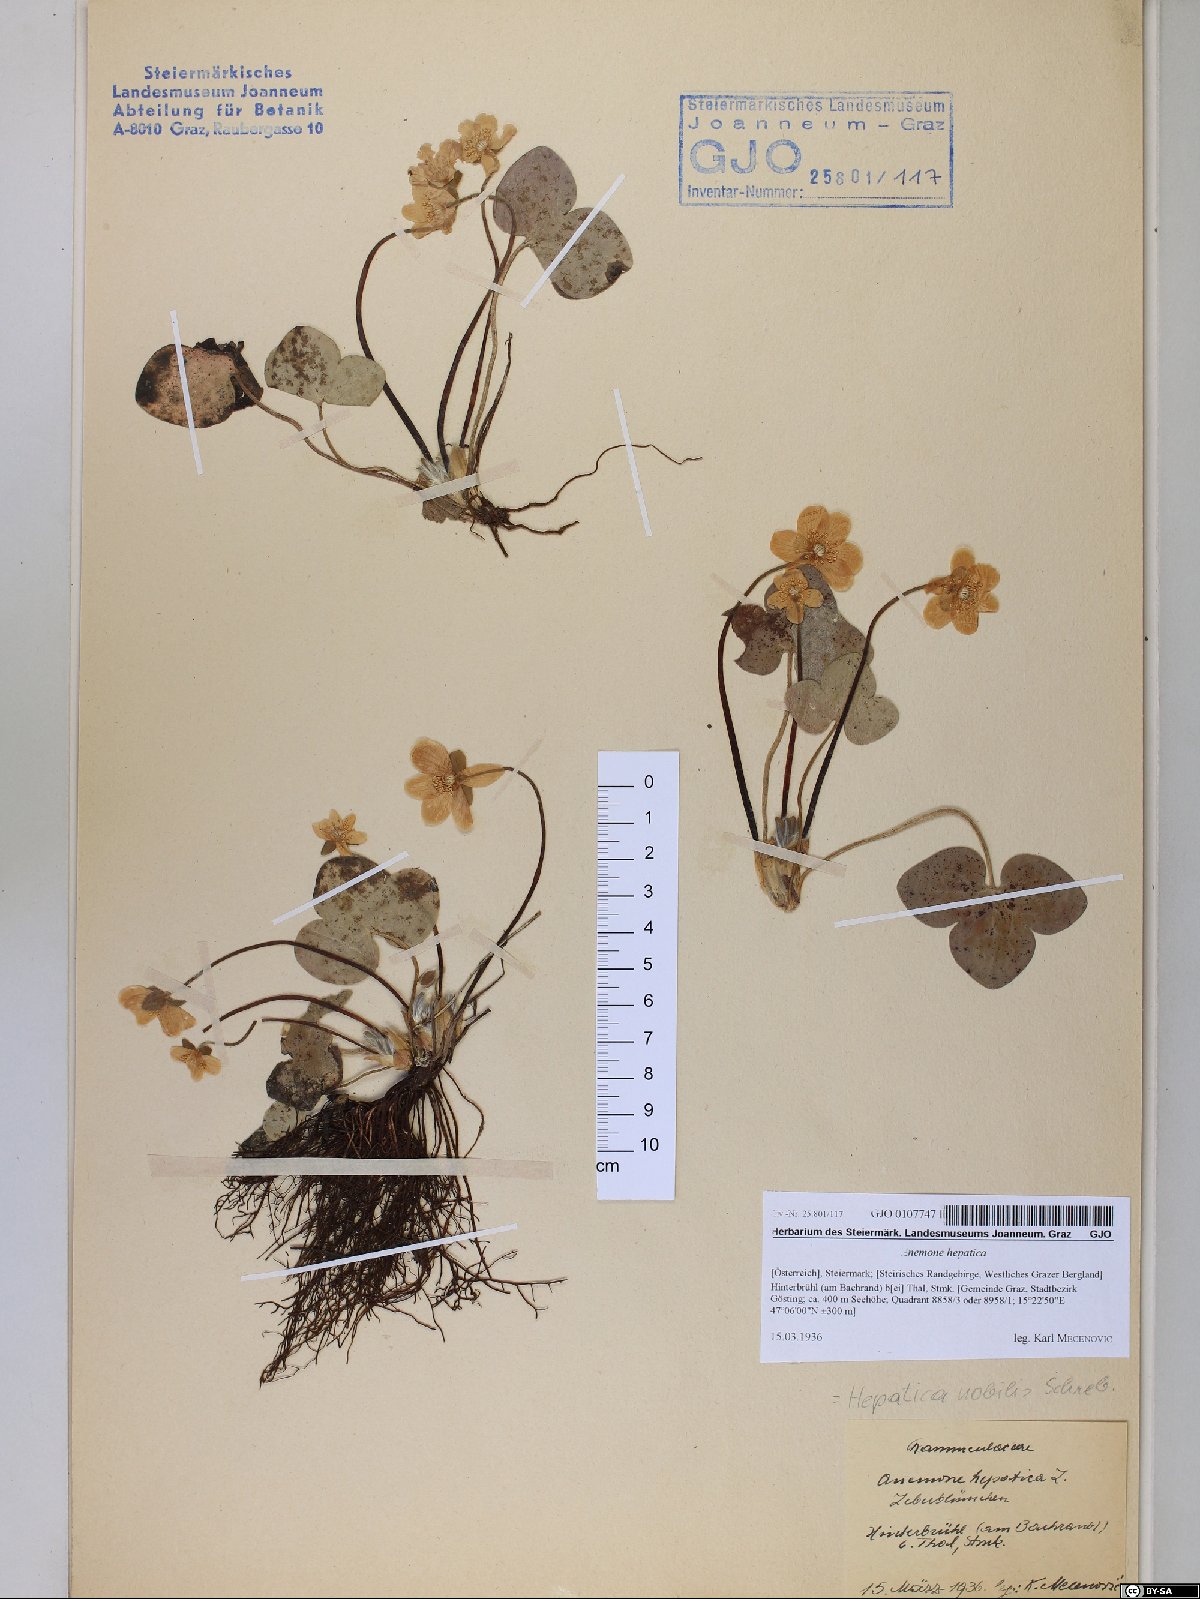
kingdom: Plantae
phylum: Tracheophyta
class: Magnoliopsida
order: Ranunculales
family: Ranunculaceae
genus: Hepatica
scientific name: Hepatica nobilis
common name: Liverleaf
